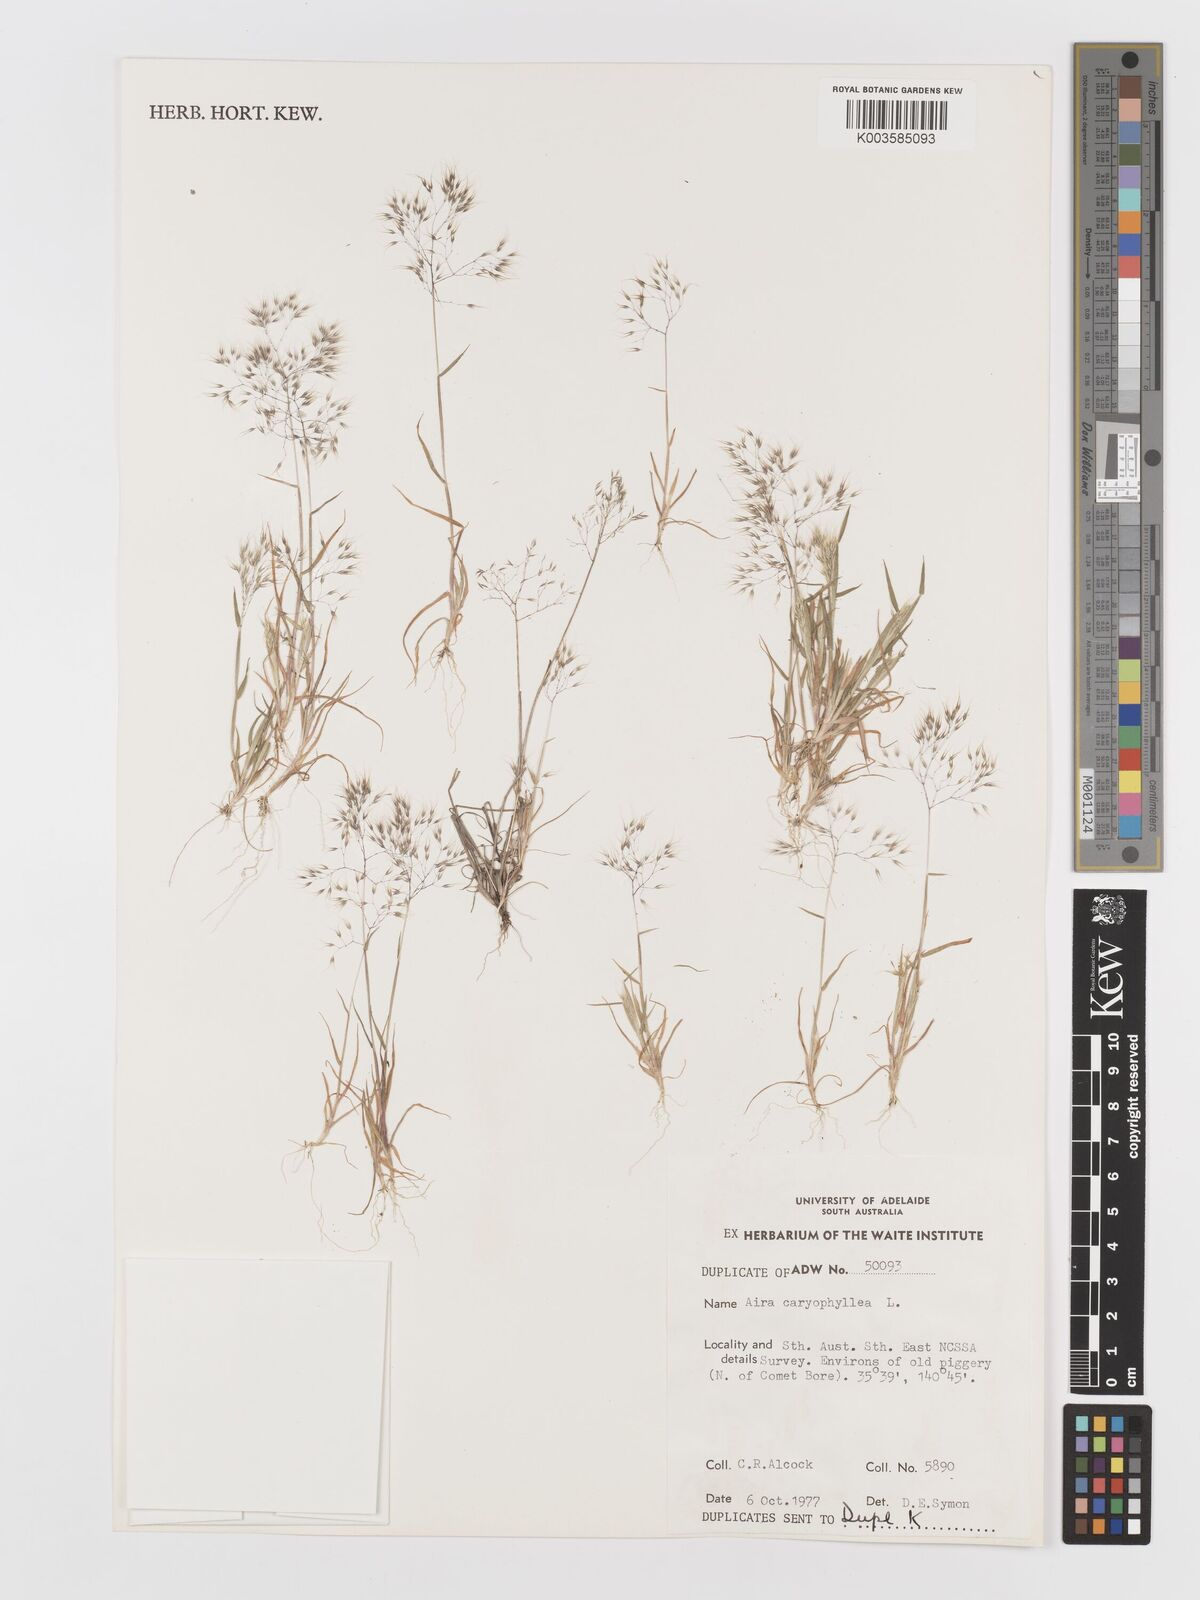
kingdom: Plantae
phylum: Tracheophyta
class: Liliopsida
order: Poales
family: Poaceae
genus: Aira
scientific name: Aira caryophyllea
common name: Silver hairgrass
